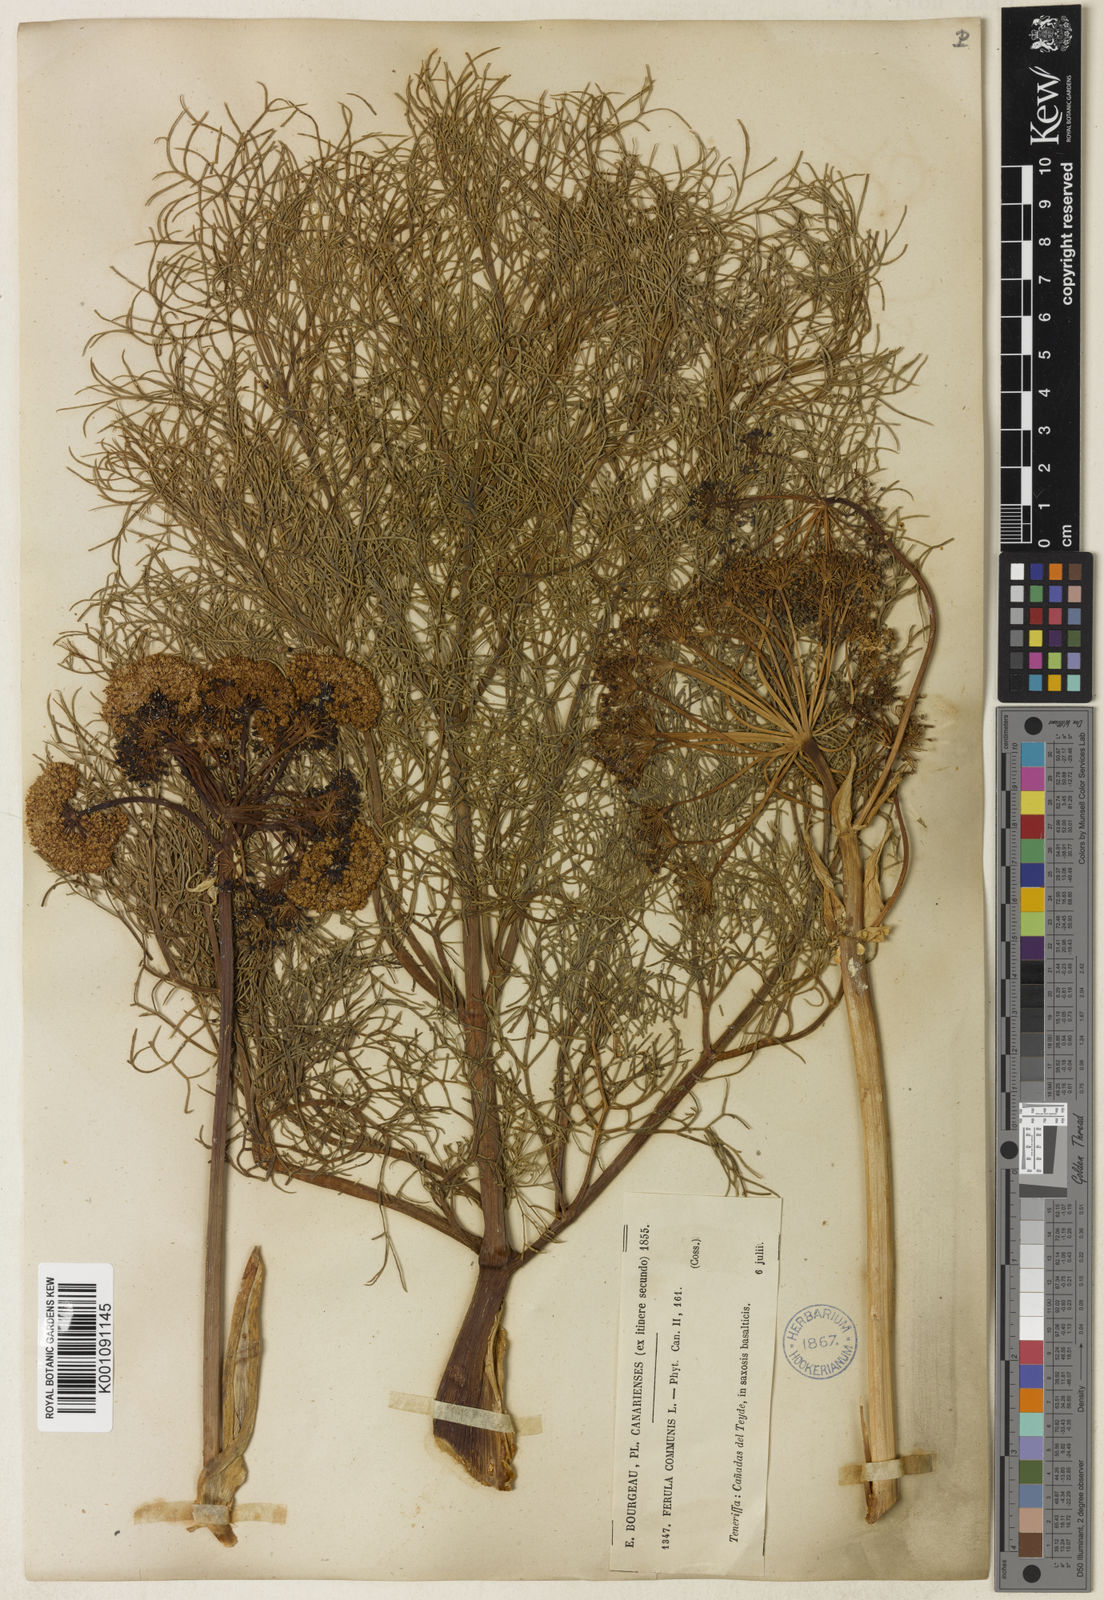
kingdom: Plantae
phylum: Tracheophyta
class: Magnoliopsida
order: Apiales
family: Apiaceae
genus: Ferula
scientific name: Ferula communis
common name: Giant fennel
